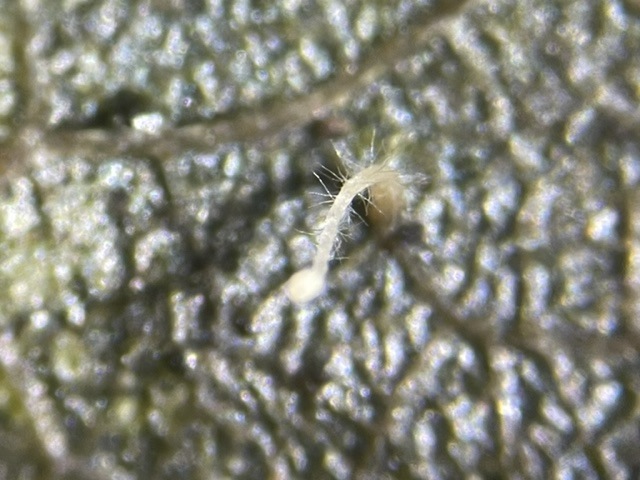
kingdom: Fungi
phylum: Basidiomycota
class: Agaricomycetes
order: Agaricales
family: Typhulaceae
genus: Typhula
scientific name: Typhula setipes
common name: liden trådkølle
